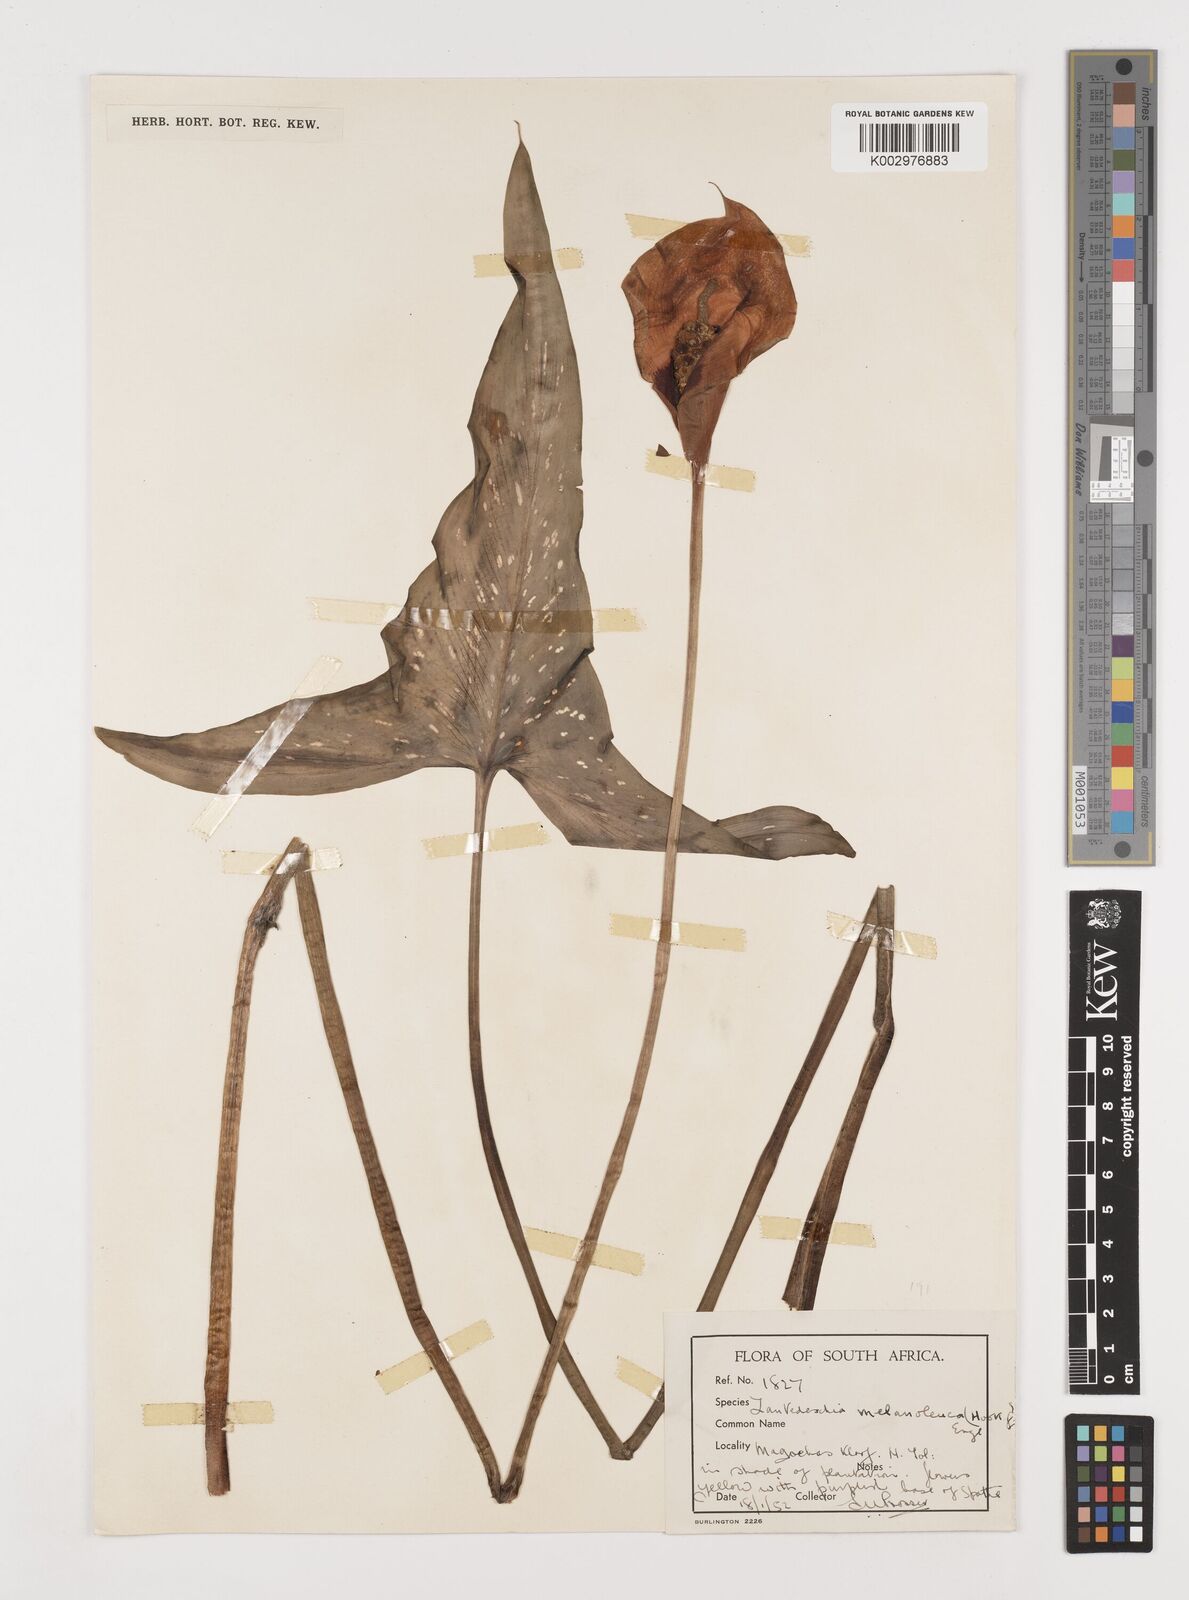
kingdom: Plantae
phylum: Tracheophyta
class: Liliopsida
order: Alismatales
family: Araceae
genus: Zantedeschia
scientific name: Zantedeschia albomaculata
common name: Spotted calla lily
